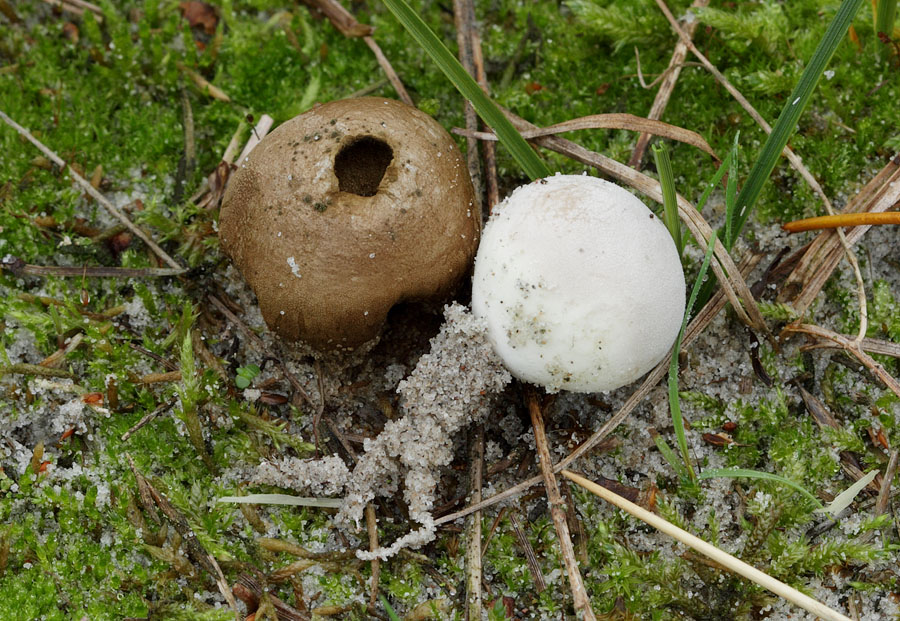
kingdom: Fungi
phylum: Basidiomycota
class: Agaricomycetes
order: Agaricales
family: Lycoperdaceae
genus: Bovista
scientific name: Bovista furfuracea
